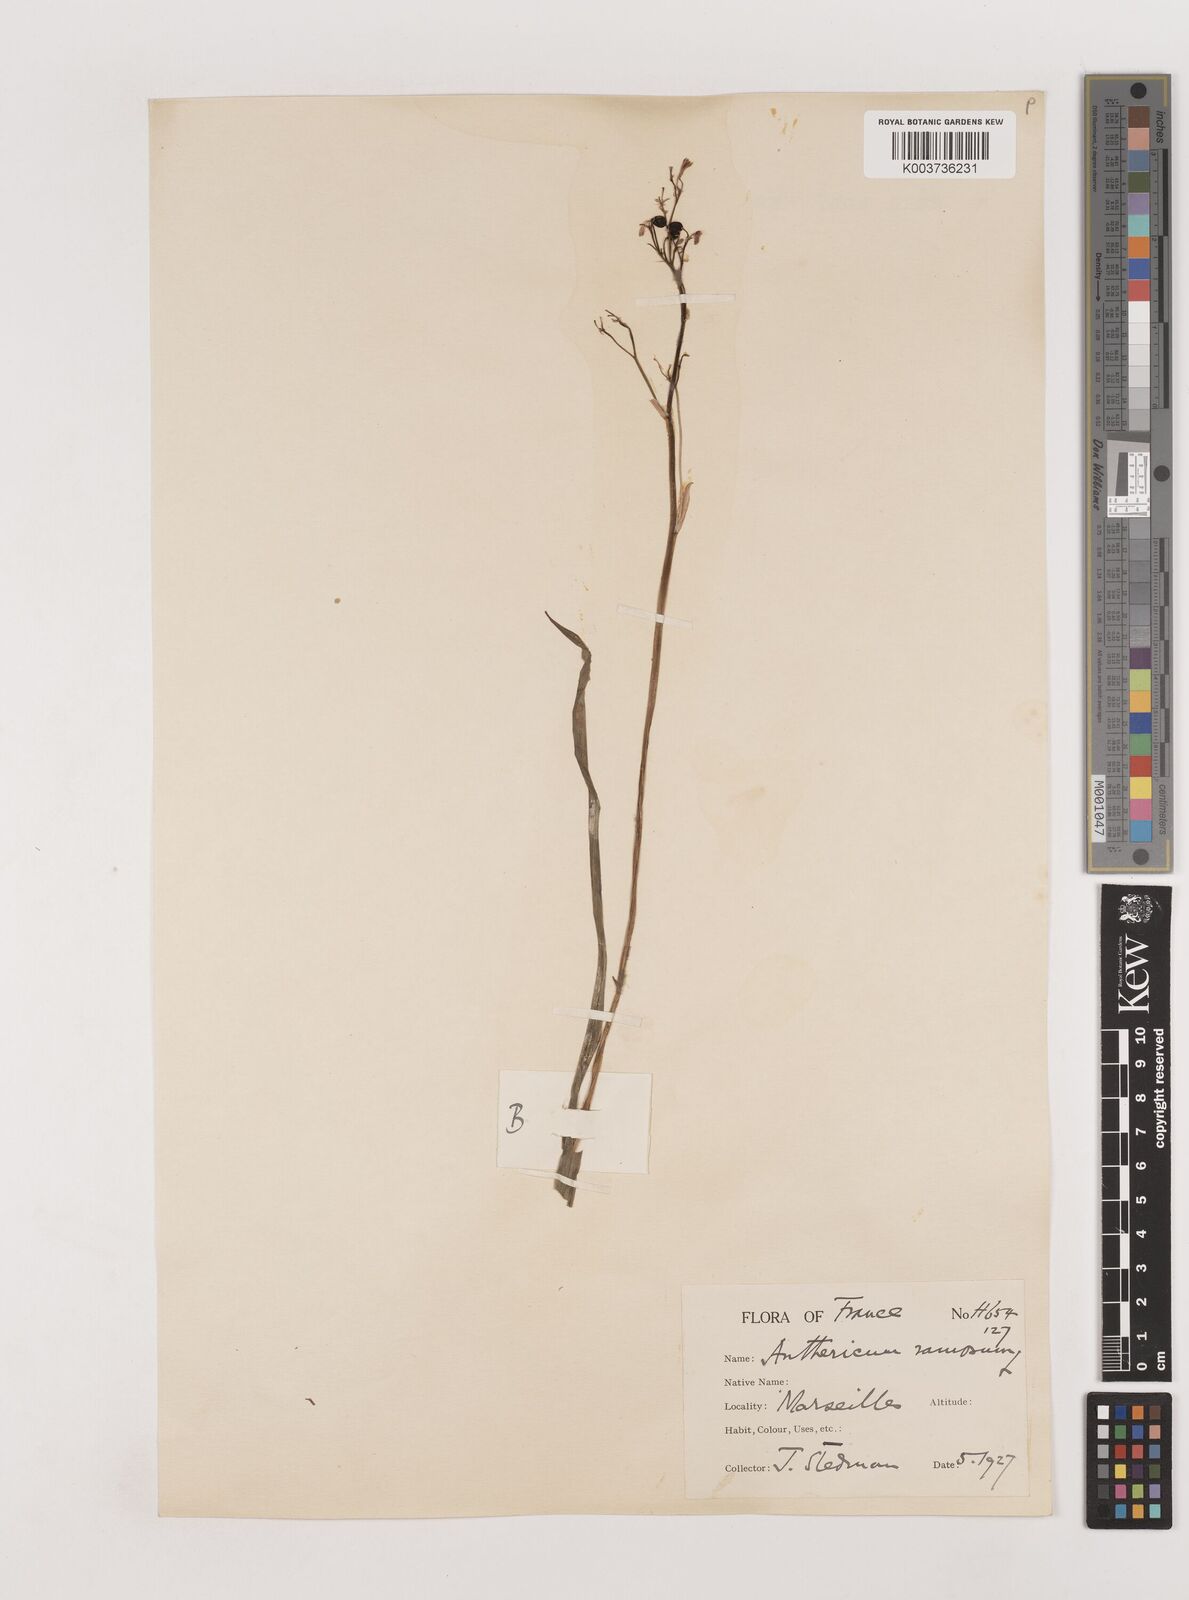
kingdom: Plantae
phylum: Tracheophyta
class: Liliopsida
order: Asparagales
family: Asparagaceae
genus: Anthericum
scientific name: Anthericum ramosum
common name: Branched st. bernard's-lily
